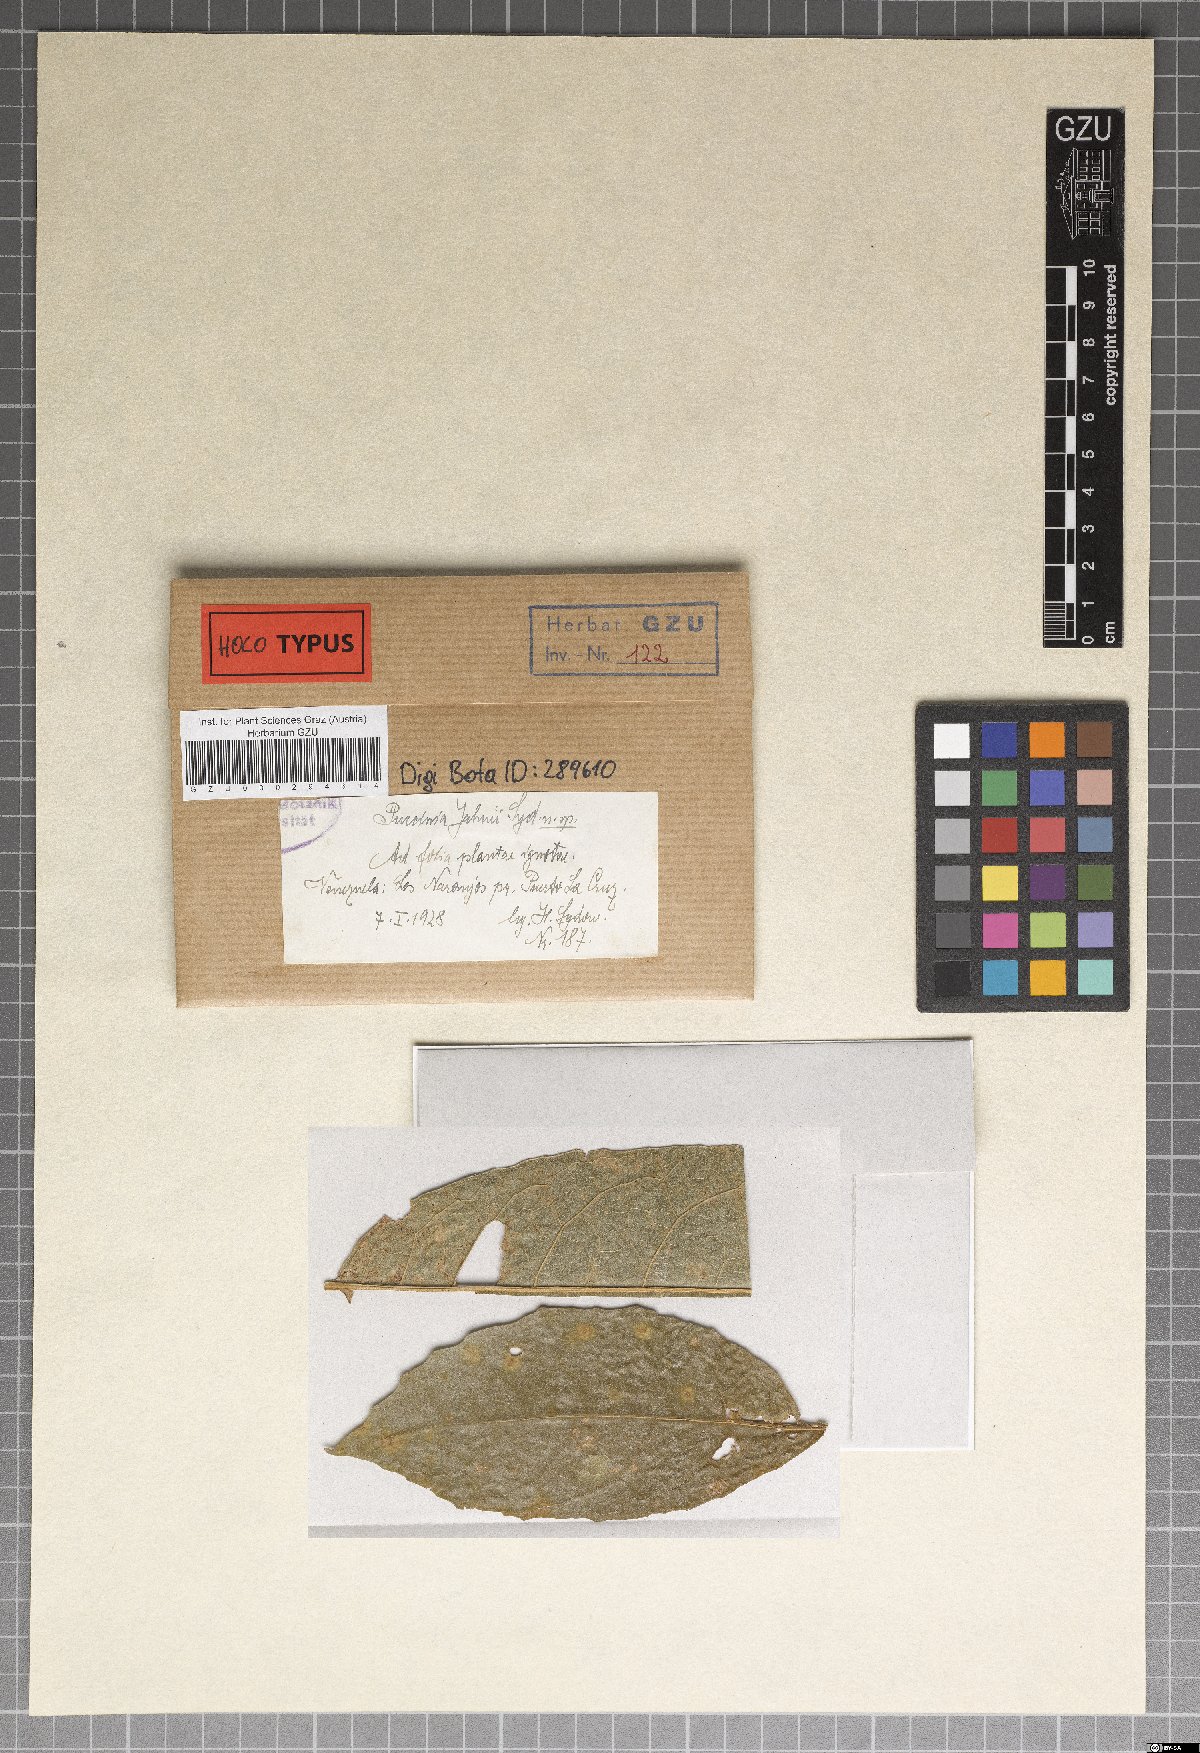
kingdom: Fungi
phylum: Basidiomycota
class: Pucciniomycetes
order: Pucciniales
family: Pucciniaceae
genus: Puccinia
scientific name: Puccinia jahnii
